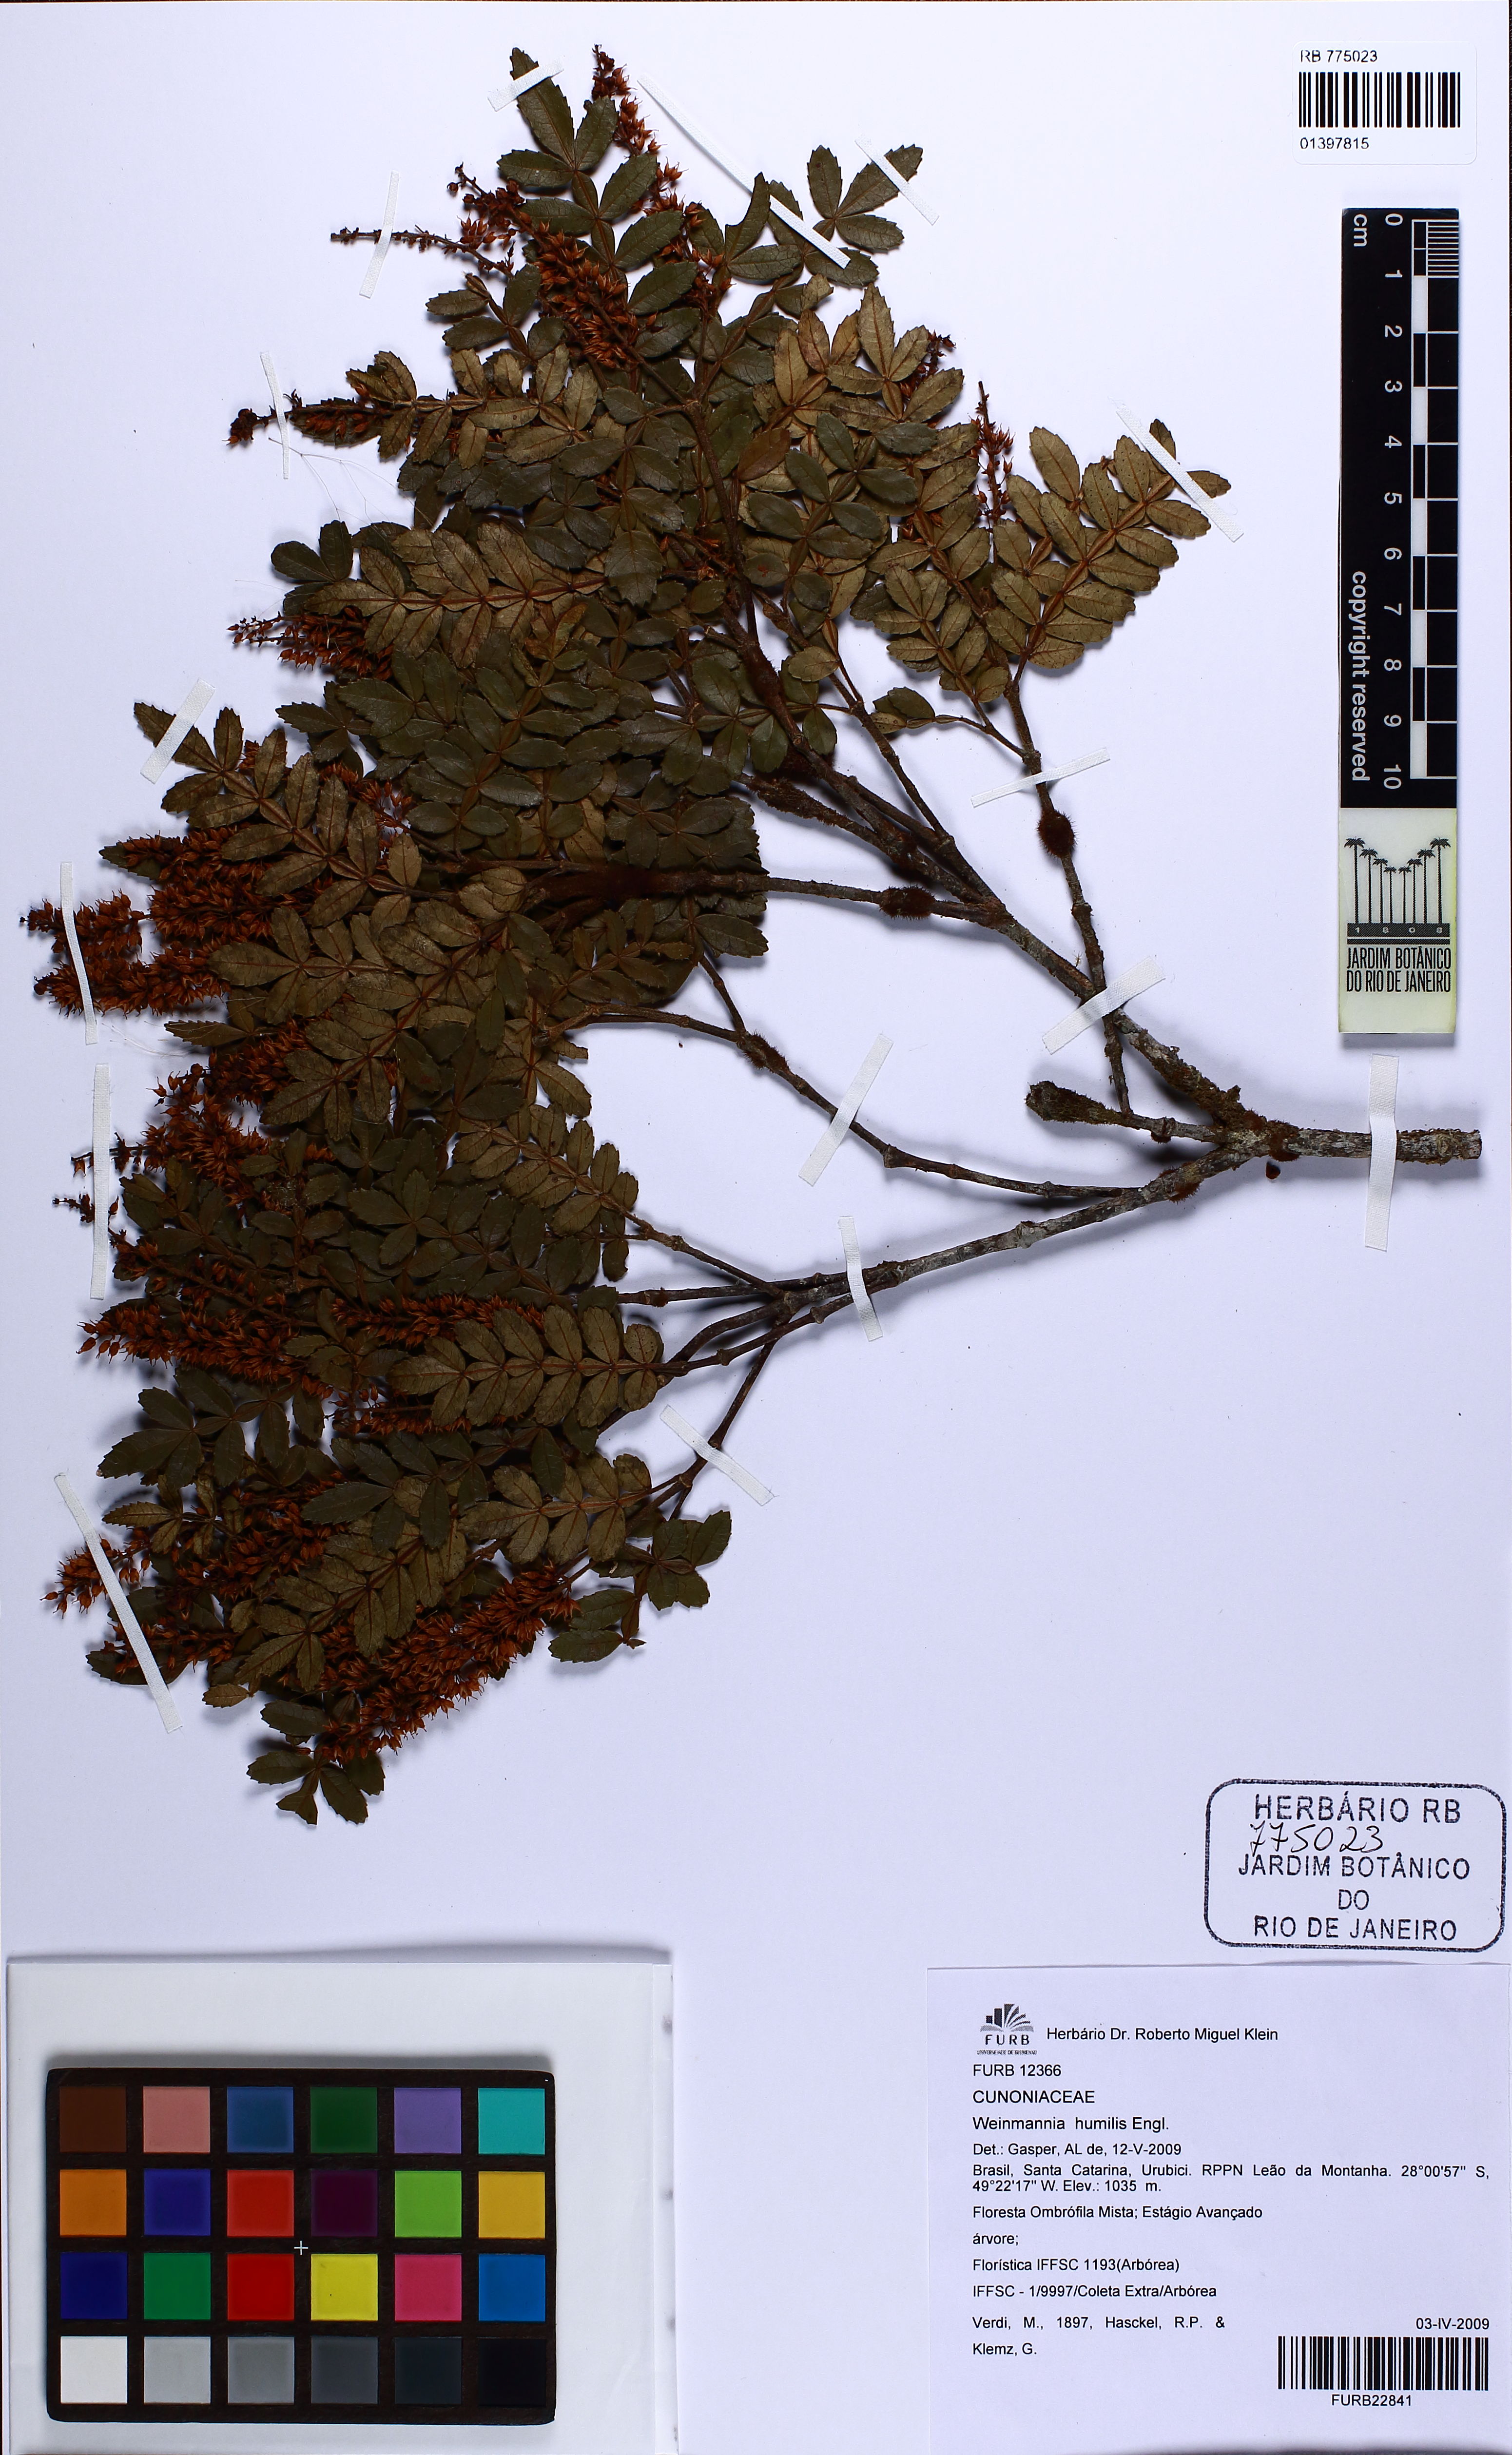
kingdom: Plantae
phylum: Tracheophyta
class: Magnoliopsida
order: Oxalidales
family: Cunoniaceae
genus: Weinmannia
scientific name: Weinmannia humilis
